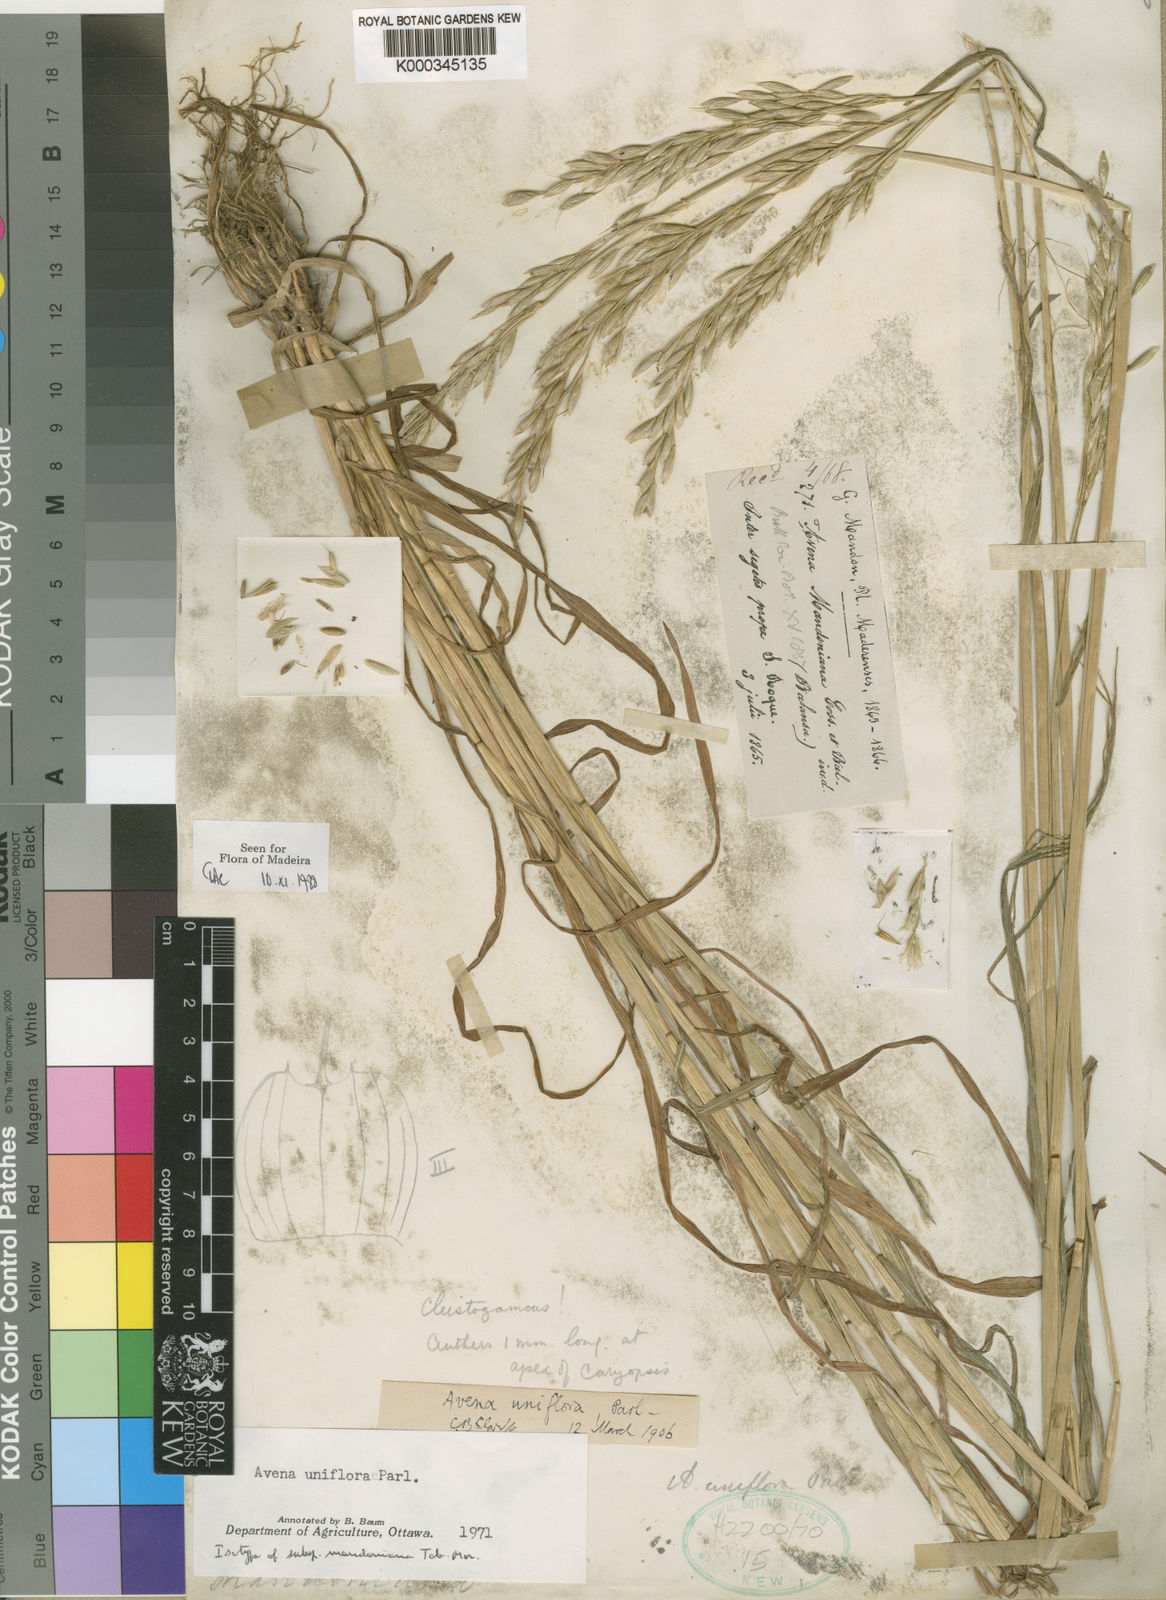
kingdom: Plantae
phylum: Tracheophyta
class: Liliopsida
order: Poales
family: Poaceae
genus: Avena
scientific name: Avena brevis
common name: Short oat
